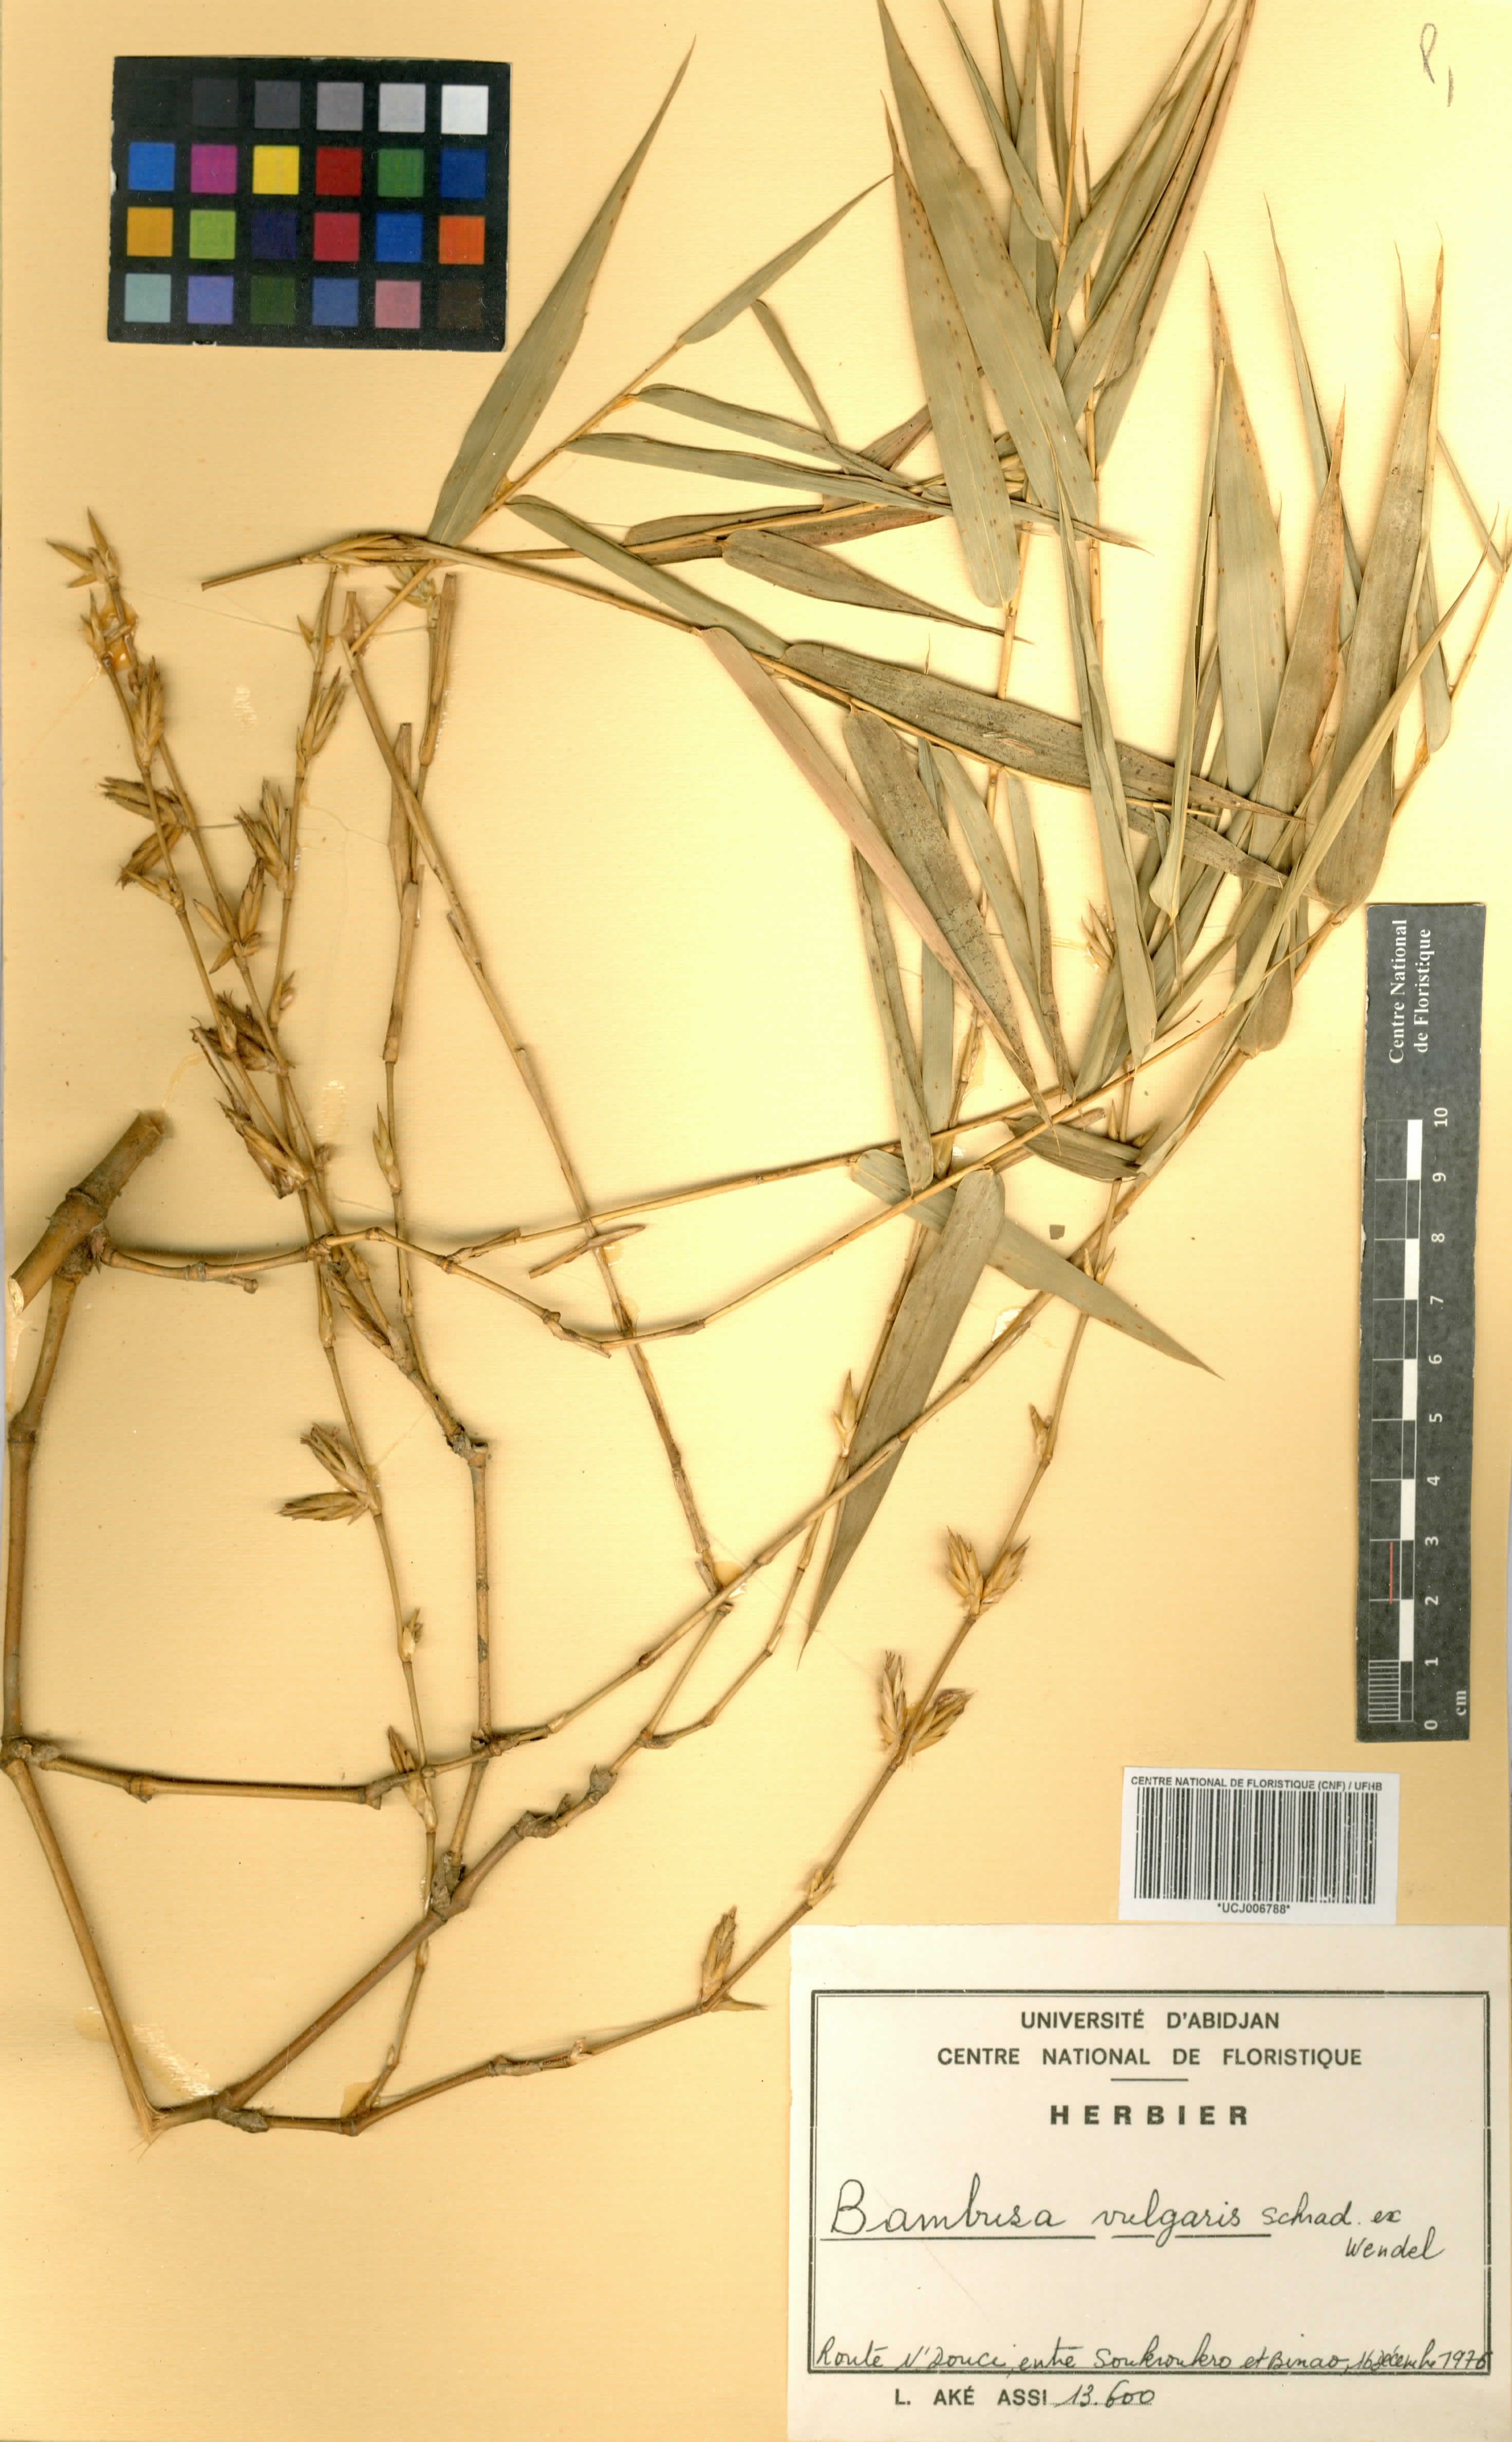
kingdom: Plantae
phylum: Tracheophyta
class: Liliopsida
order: Poales
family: Poaceae
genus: Bambusa
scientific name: Bambusa vulgaris
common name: Common bamboo
